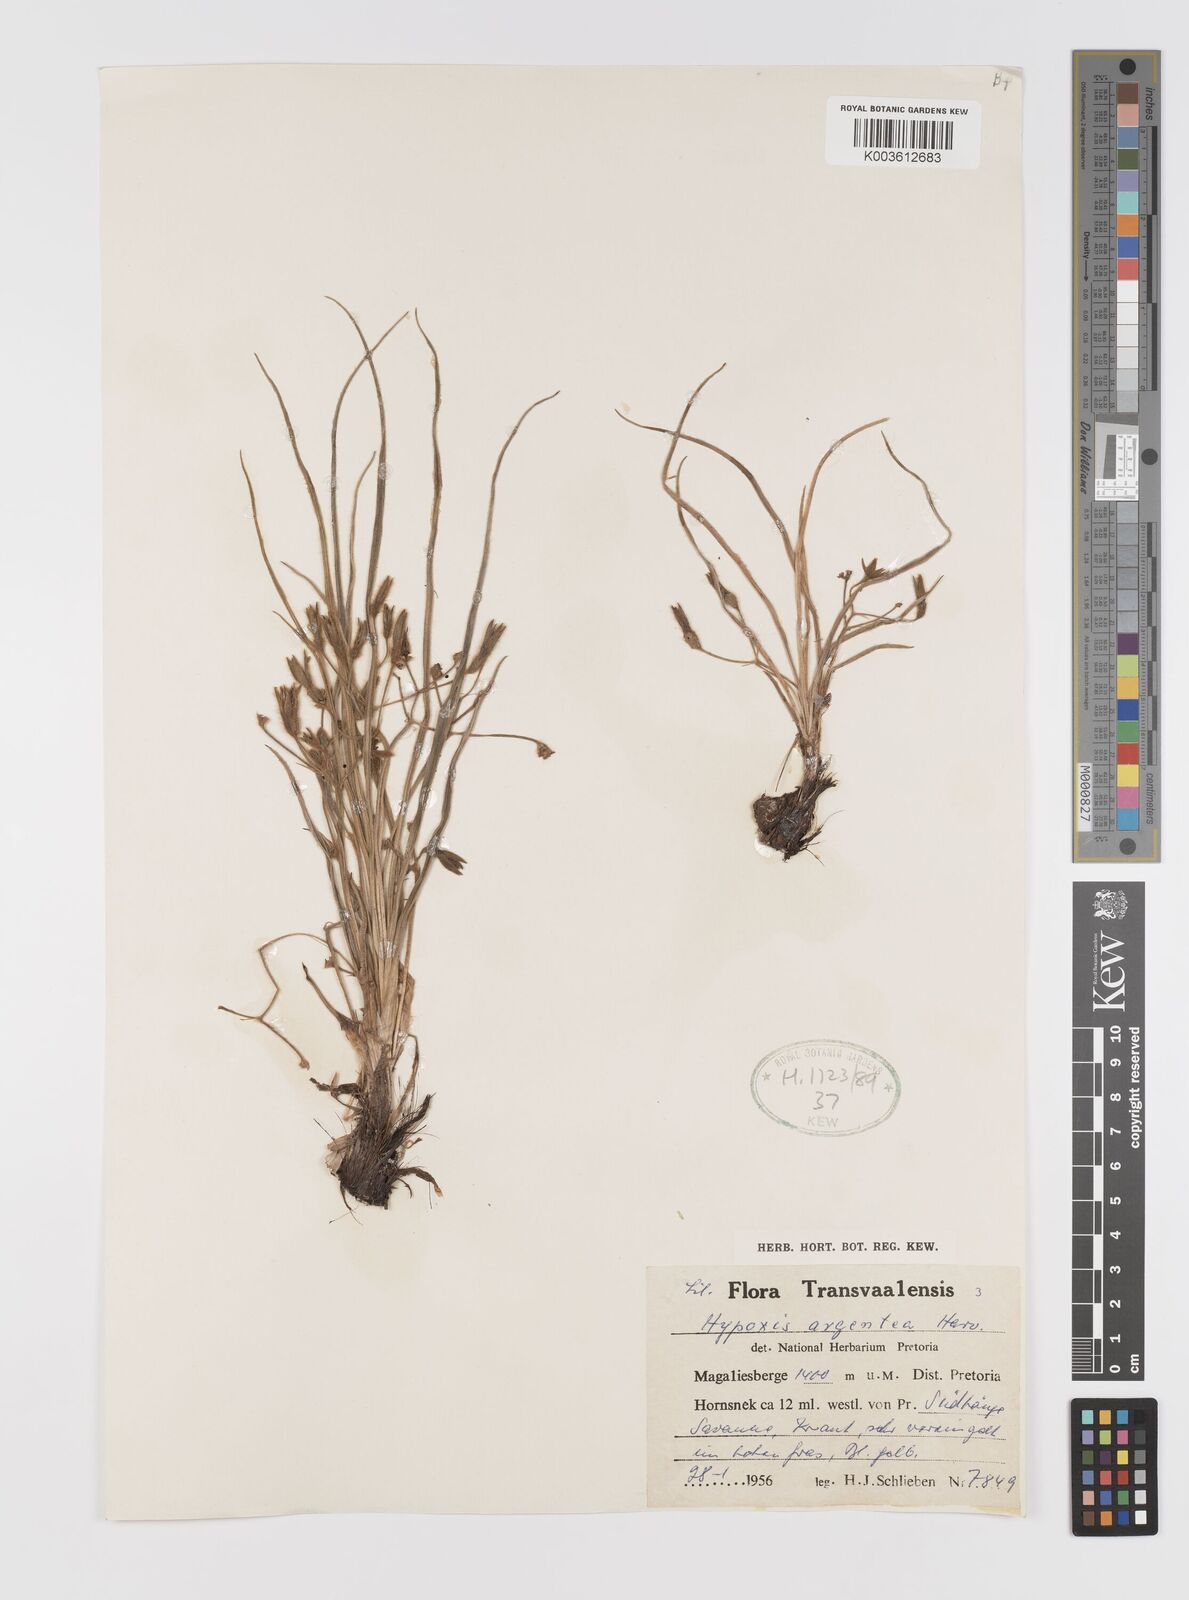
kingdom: Plantae
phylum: Tracheophyta
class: Liliopsida
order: Asparagales
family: Hypoxidaceae
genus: Hypoxis
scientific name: Hypoxis argentea
